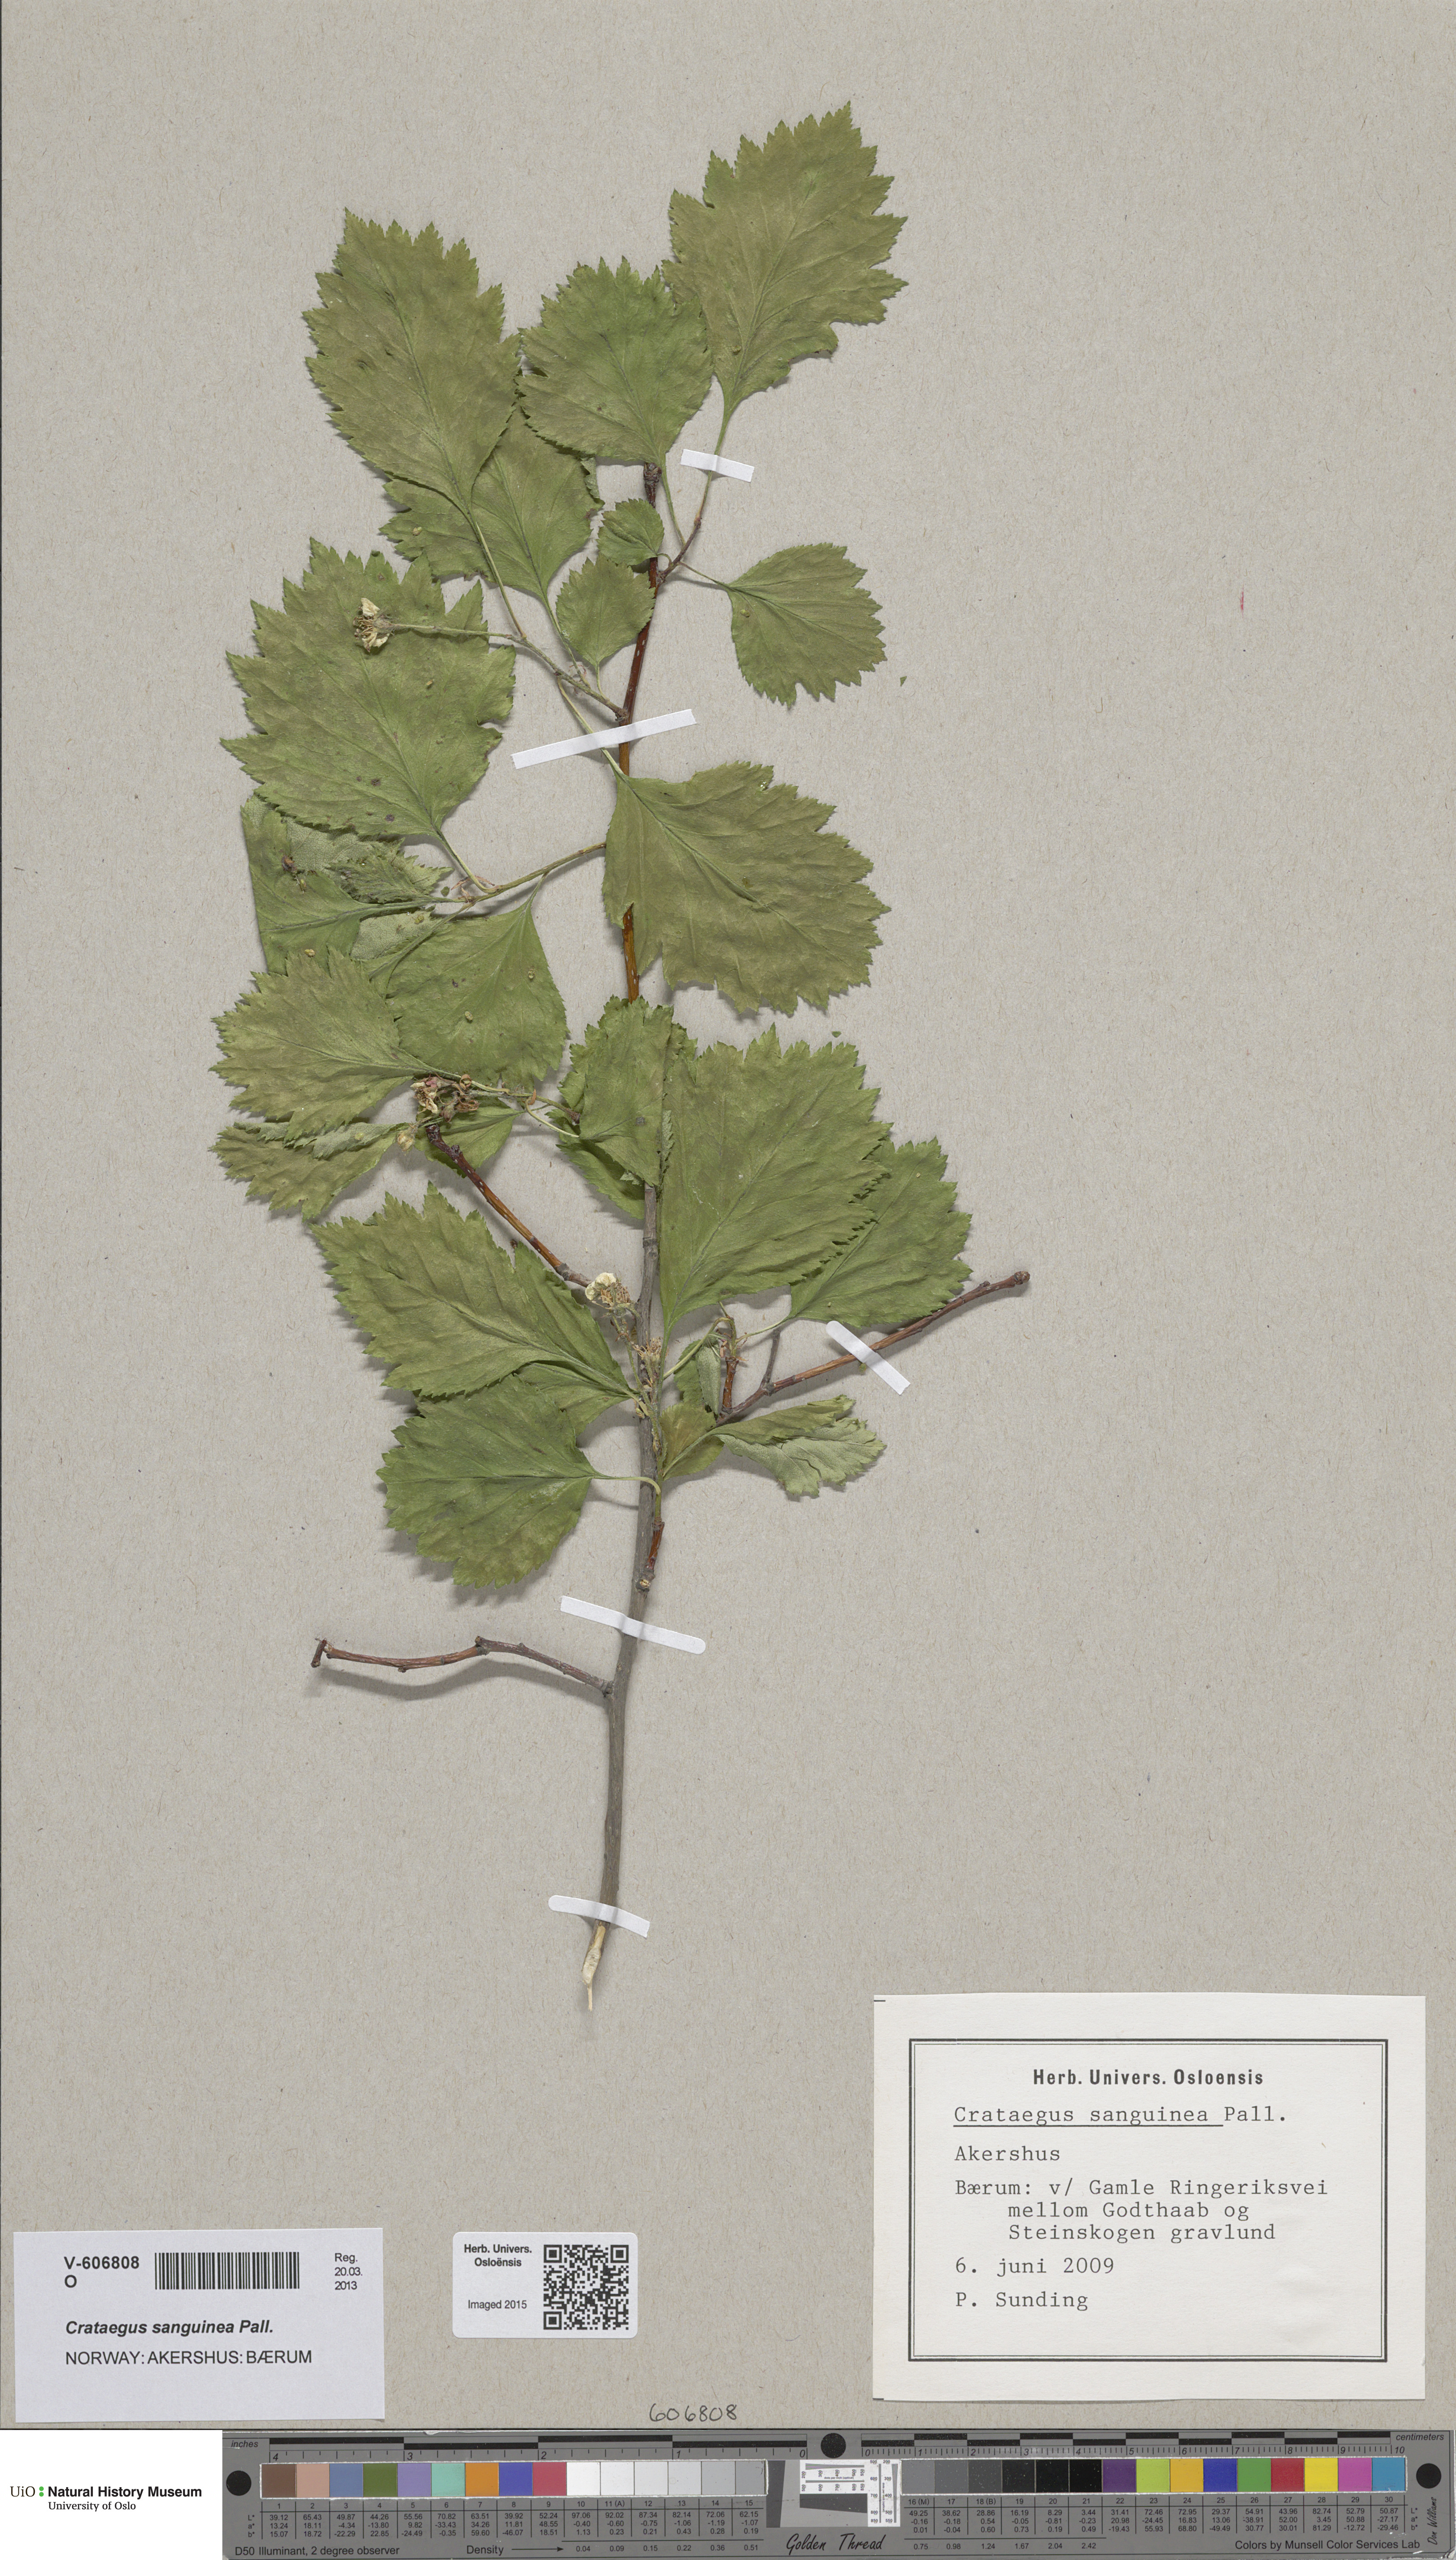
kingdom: Plantae
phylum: Tracheophyta
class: Magnoliopsida
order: Rosales
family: Rosaceae
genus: Crataegus
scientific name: Crataegus sanguinea
